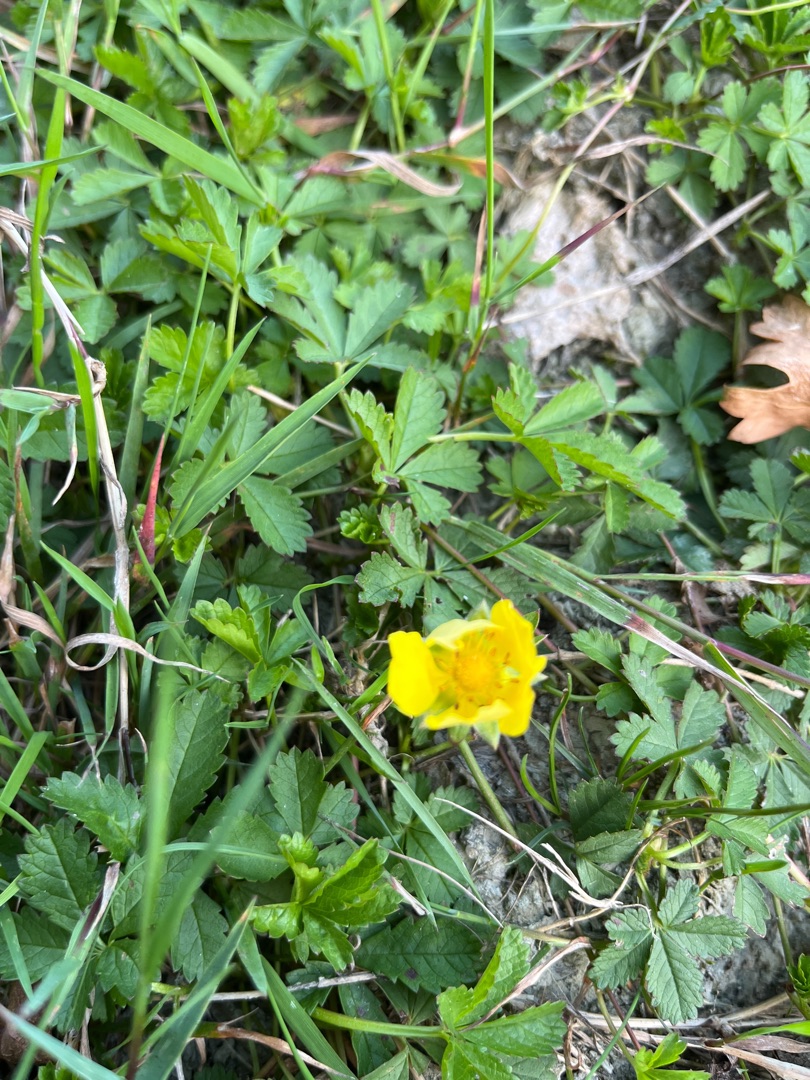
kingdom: Plantae
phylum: Tracheophyta
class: Magnoliopsida
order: Rosales
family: Rosaceae
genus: Potentilla
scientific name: Potentilla reptans
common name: Krybende potentil
